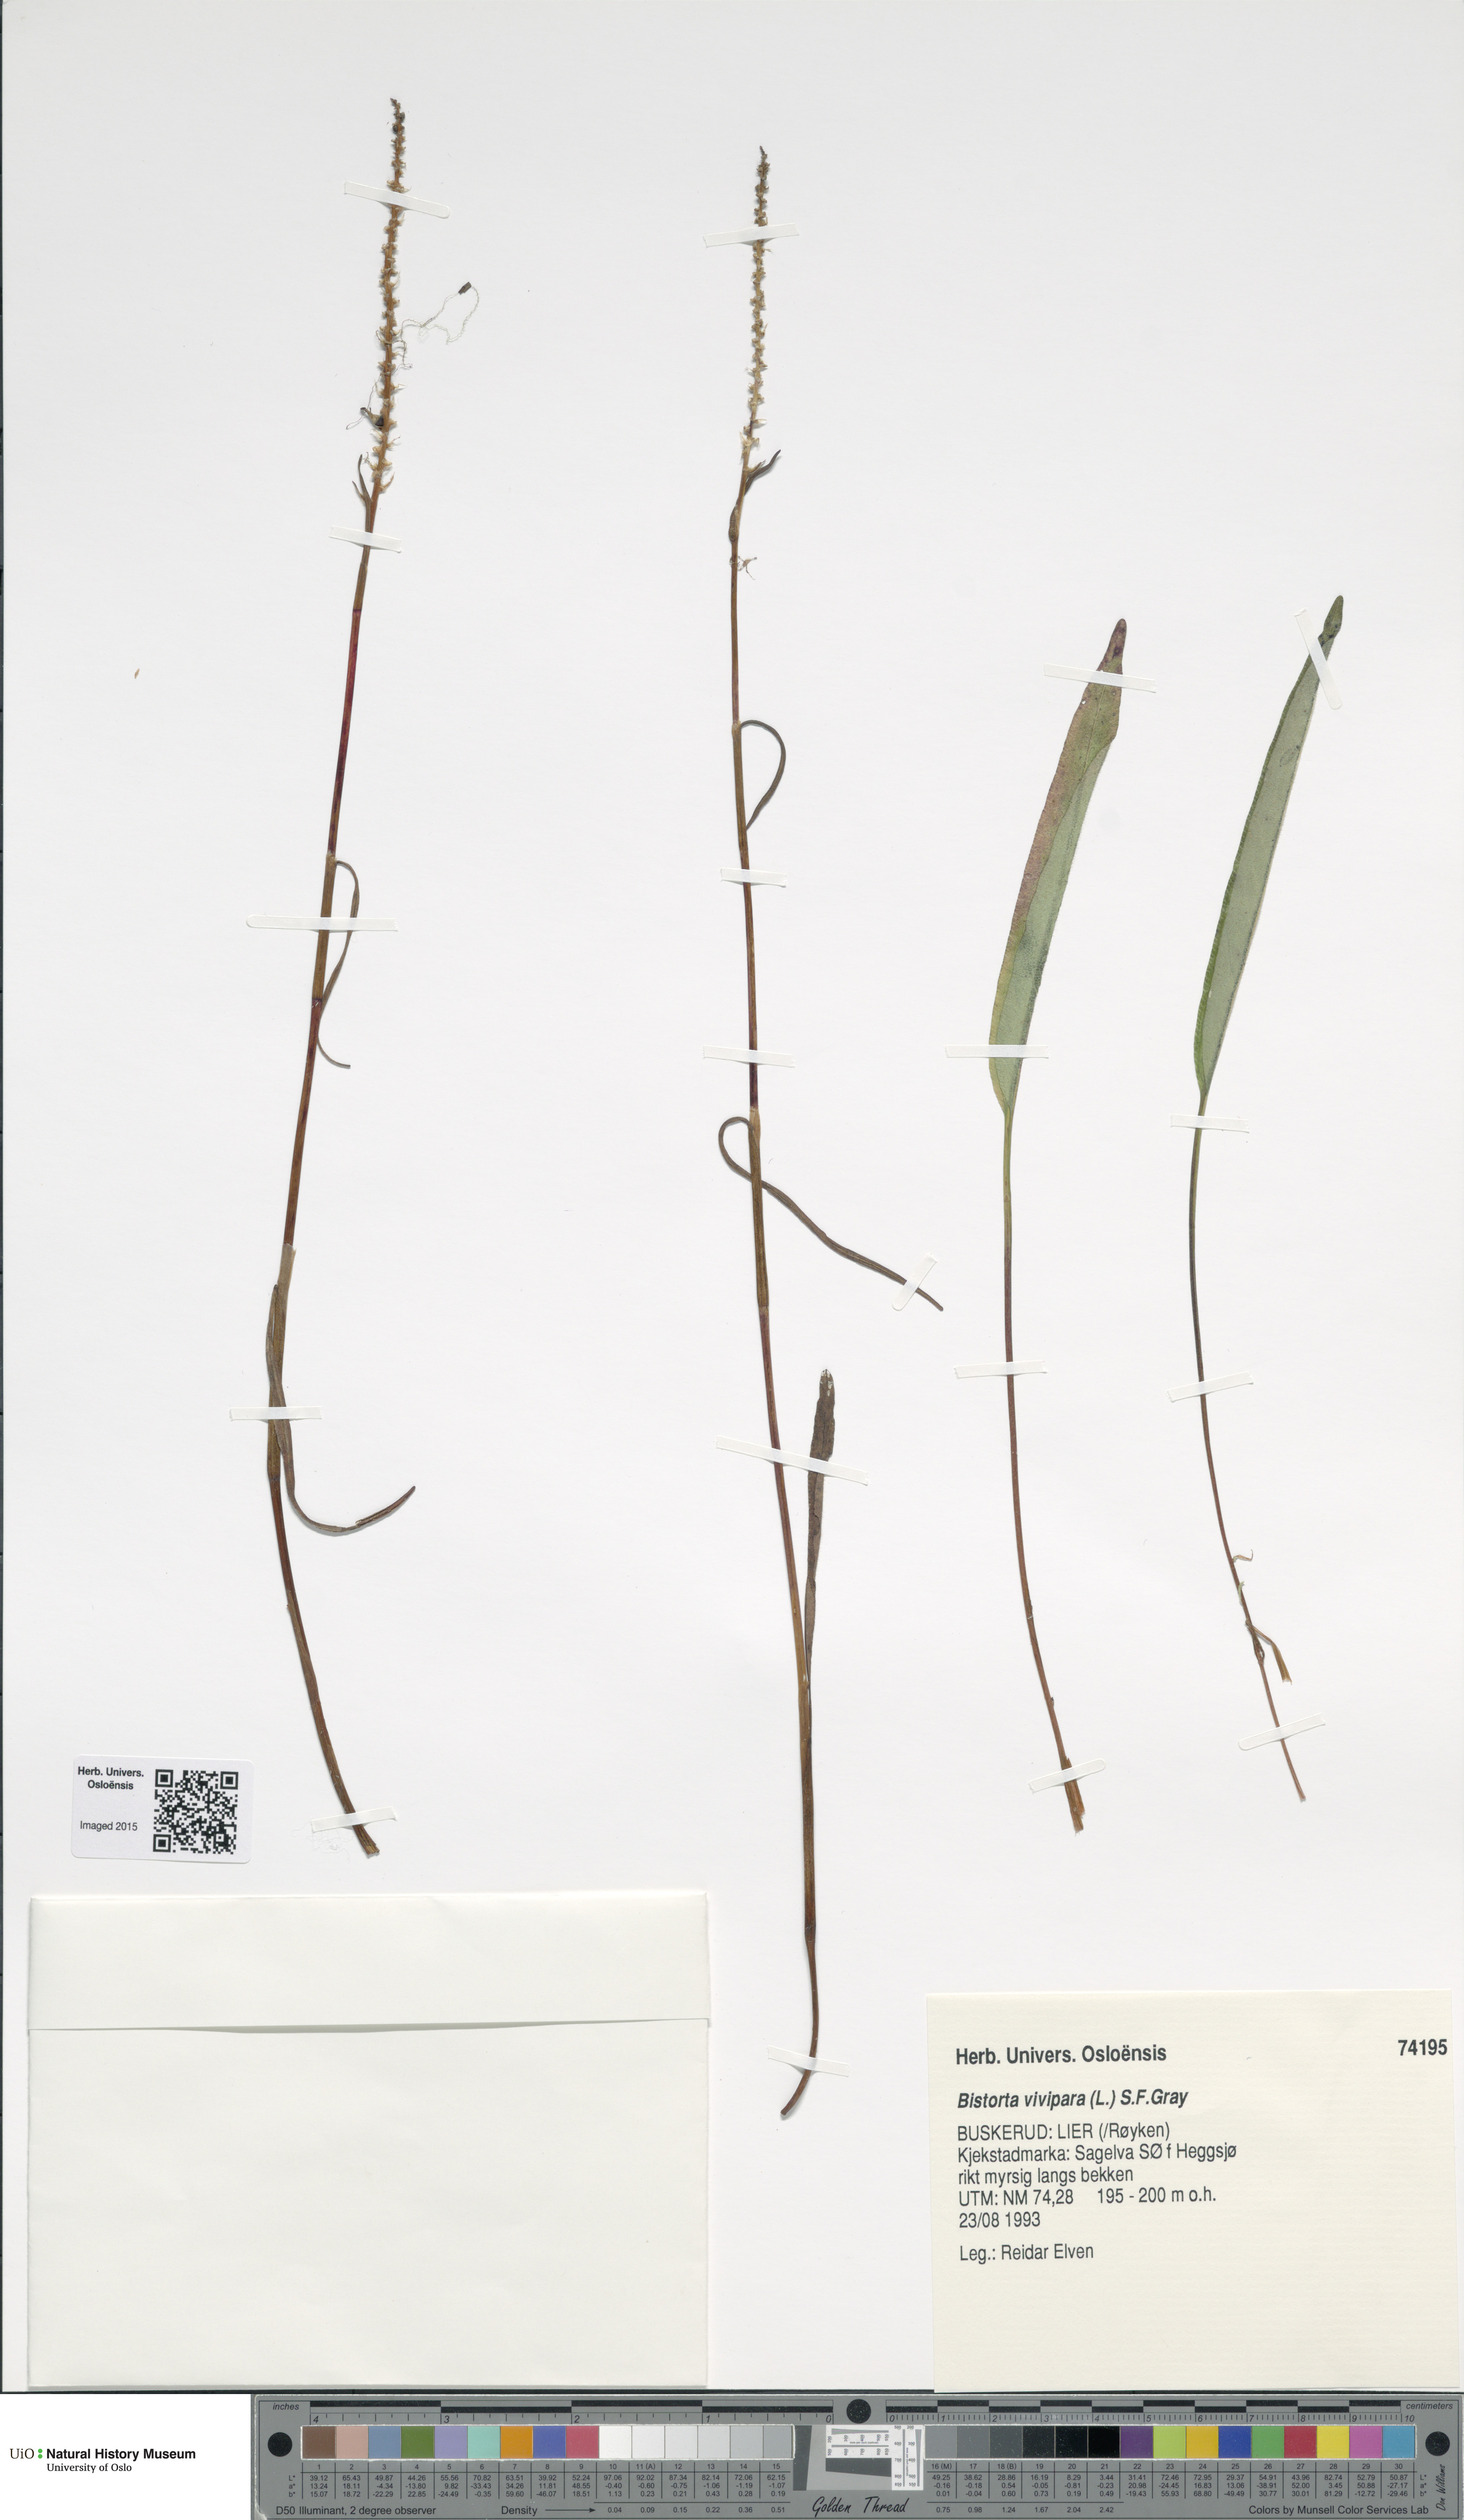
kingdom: Plantae
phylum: Tracheophyta
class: Magnoliopsida
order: Caryophyllales
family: Polygonaceae
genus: Bistorta
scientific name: Bistorta vivipara
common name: Alpine bistort
